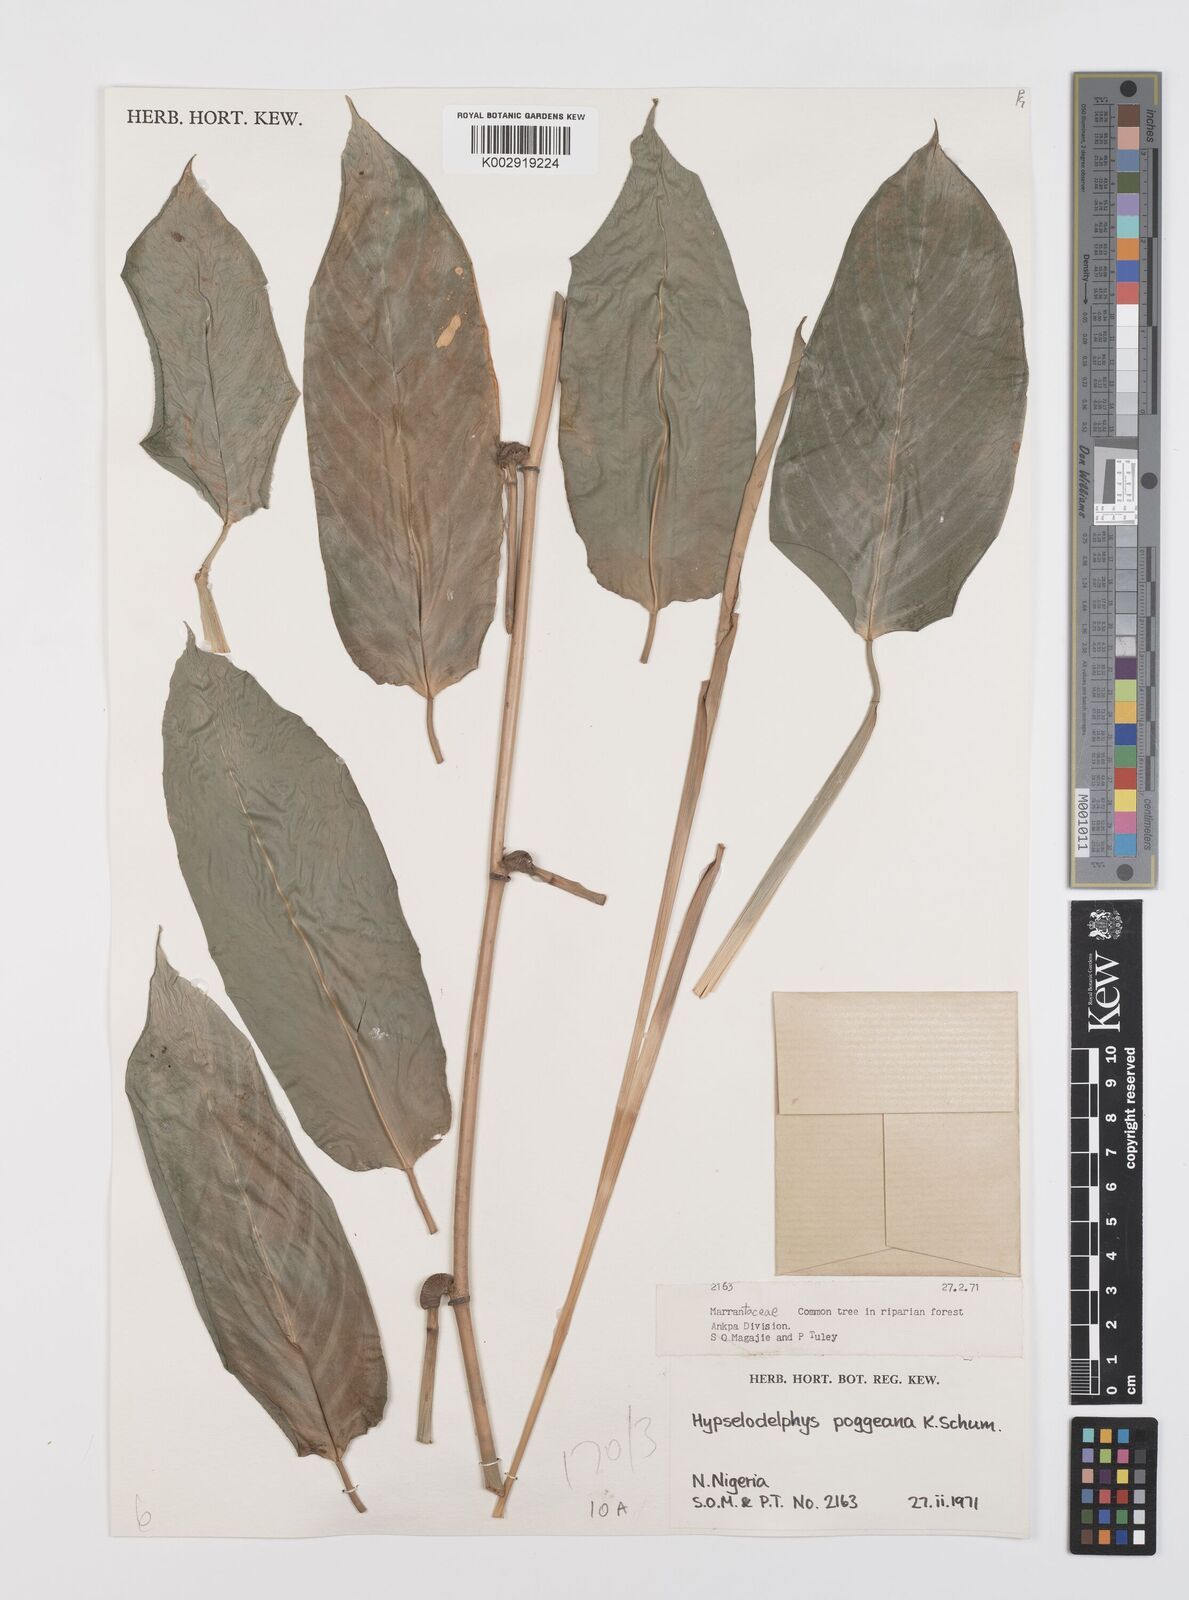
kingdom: Plantae
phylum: Tracheophyta
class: Liliopsida
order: Zingiberales
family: Marantaceae
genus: Hypselodelphys
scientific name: Hypselodelphys poggeana
